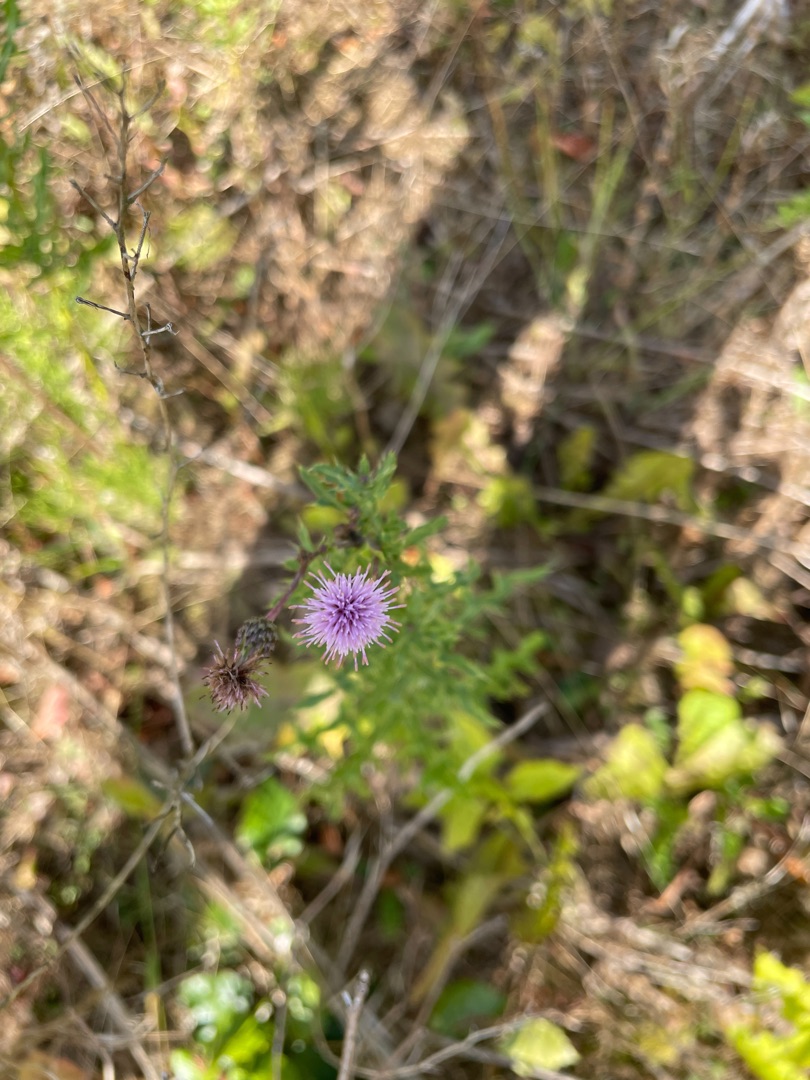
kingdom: Plantae
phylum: Tracheophyta
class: Magnoliopsida
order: Asterales
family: Asteraceae
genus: Cirsium
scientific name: Cirsium arvense
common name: Ager-tidsel
